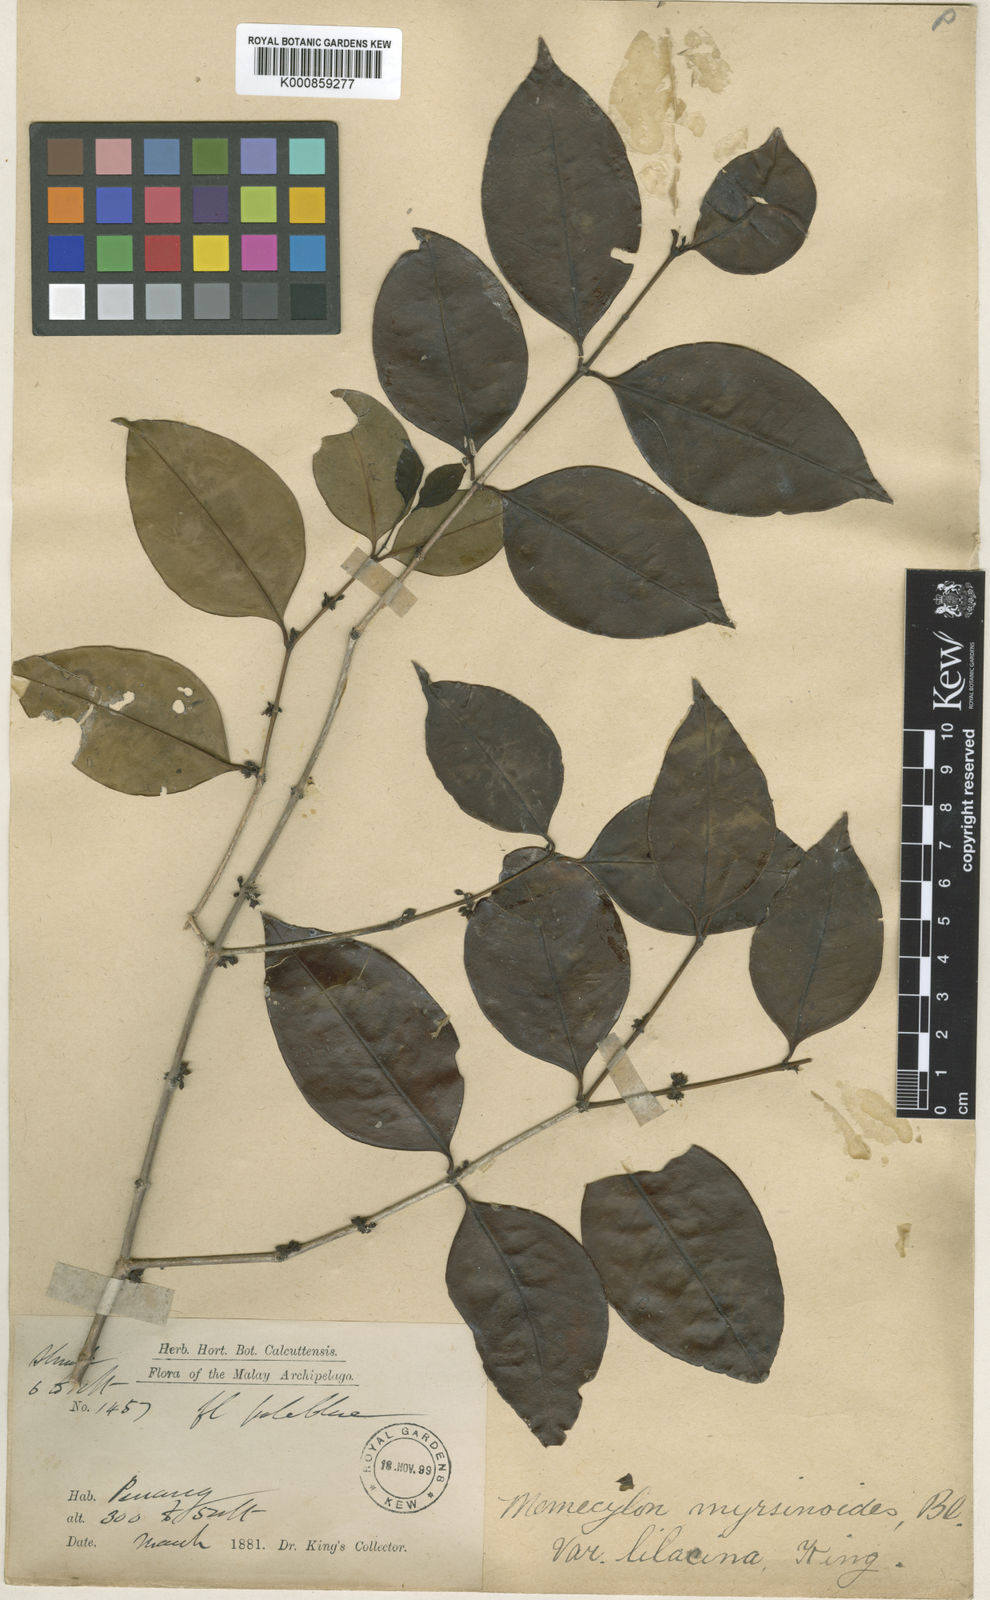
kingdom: Plantae
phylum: Tracheophyta
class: Magnoliopsida
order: Myrtales
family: Melastomataceae
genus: Memecylon
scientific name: Memecylon lilacinum
